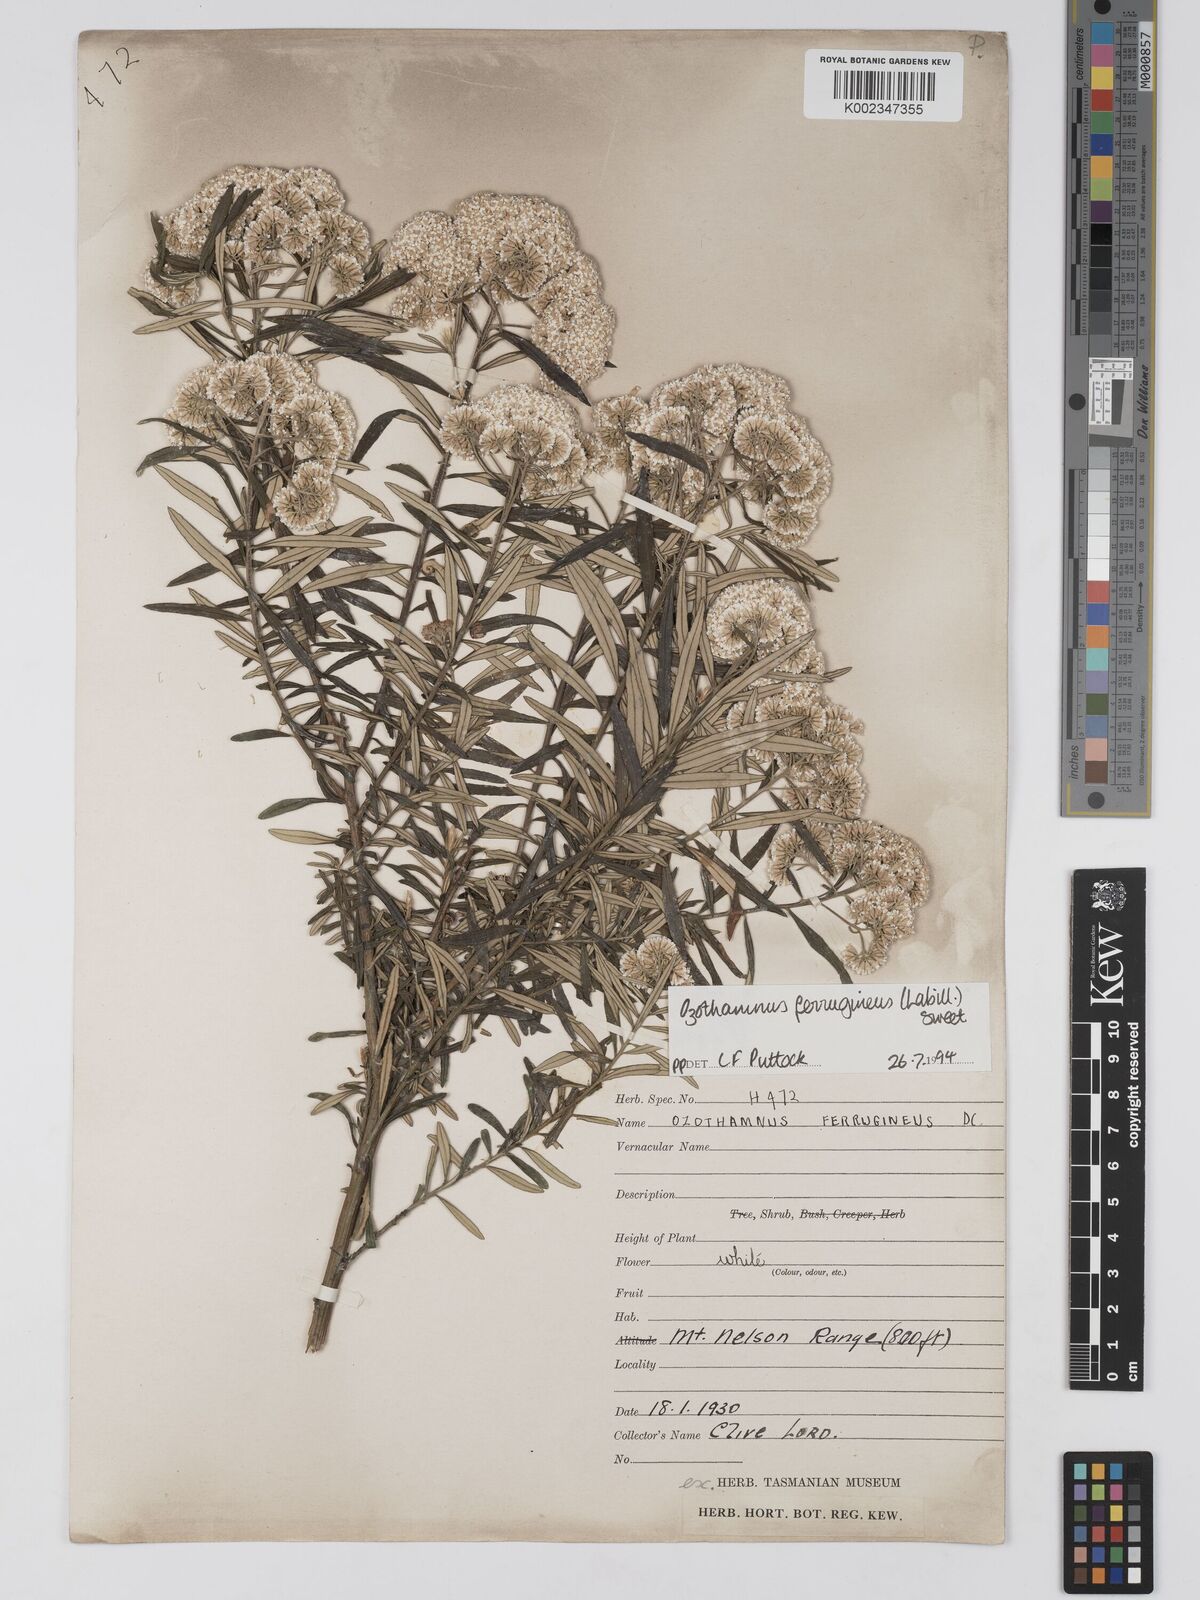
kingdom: Plantae
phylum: Tracheophyta
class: Magnoliopsida
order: Asterales
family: Asteraceae
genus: Ozothamnus
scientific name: Ozothamnus argophyllus
